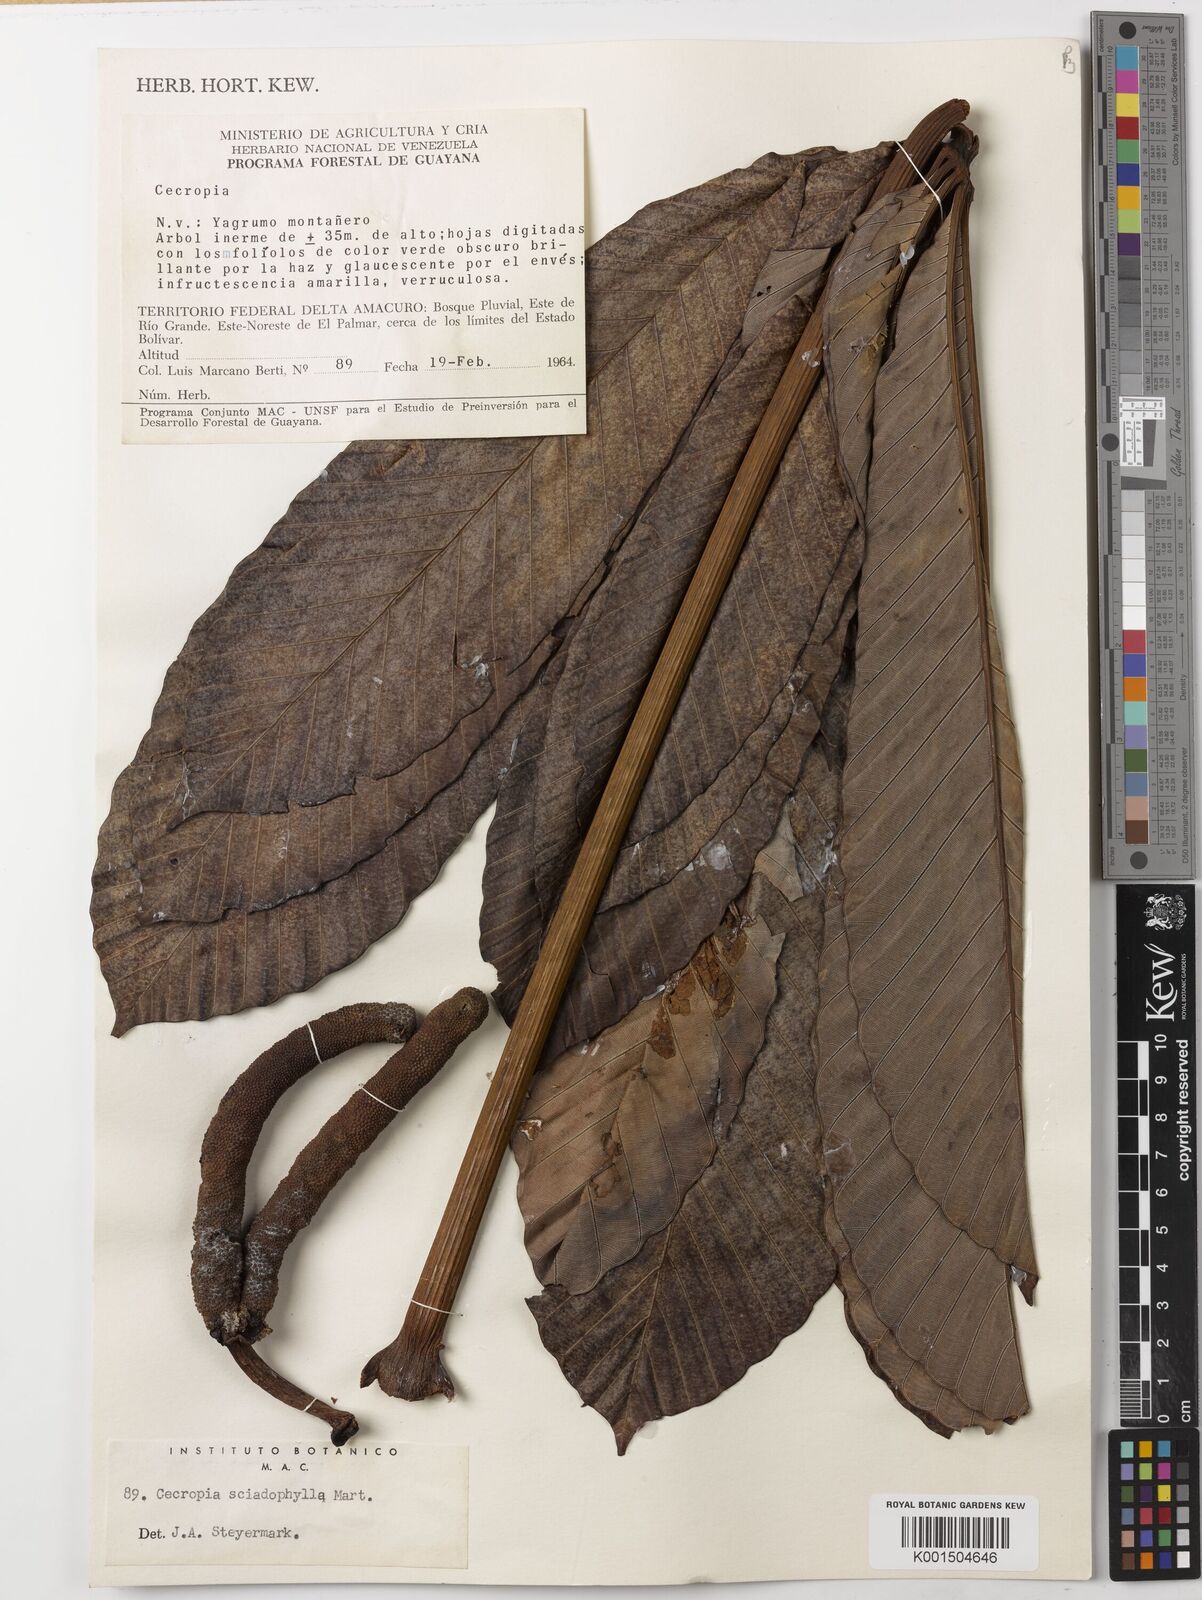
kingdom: Plantae
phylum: Tracheophyta
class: Magnoliopsida
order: Rosales
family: Urticaceae
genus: Cecropia
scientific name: Cecropia sciadophylla
